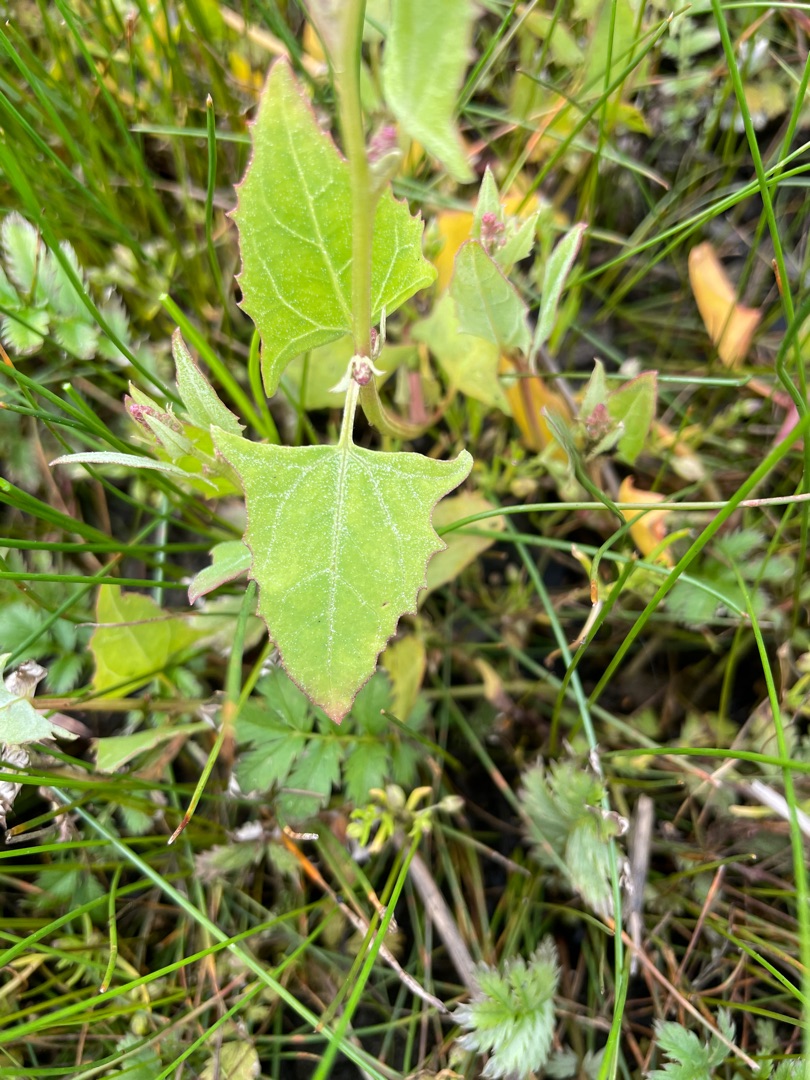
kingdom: Plantae
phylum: Tracheophyta
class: Magnoliopsida
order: Caryophyllales
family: Amaranthaceae
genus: Atriplex
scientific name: Atriplex prostrata
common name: Spyd-mælde
